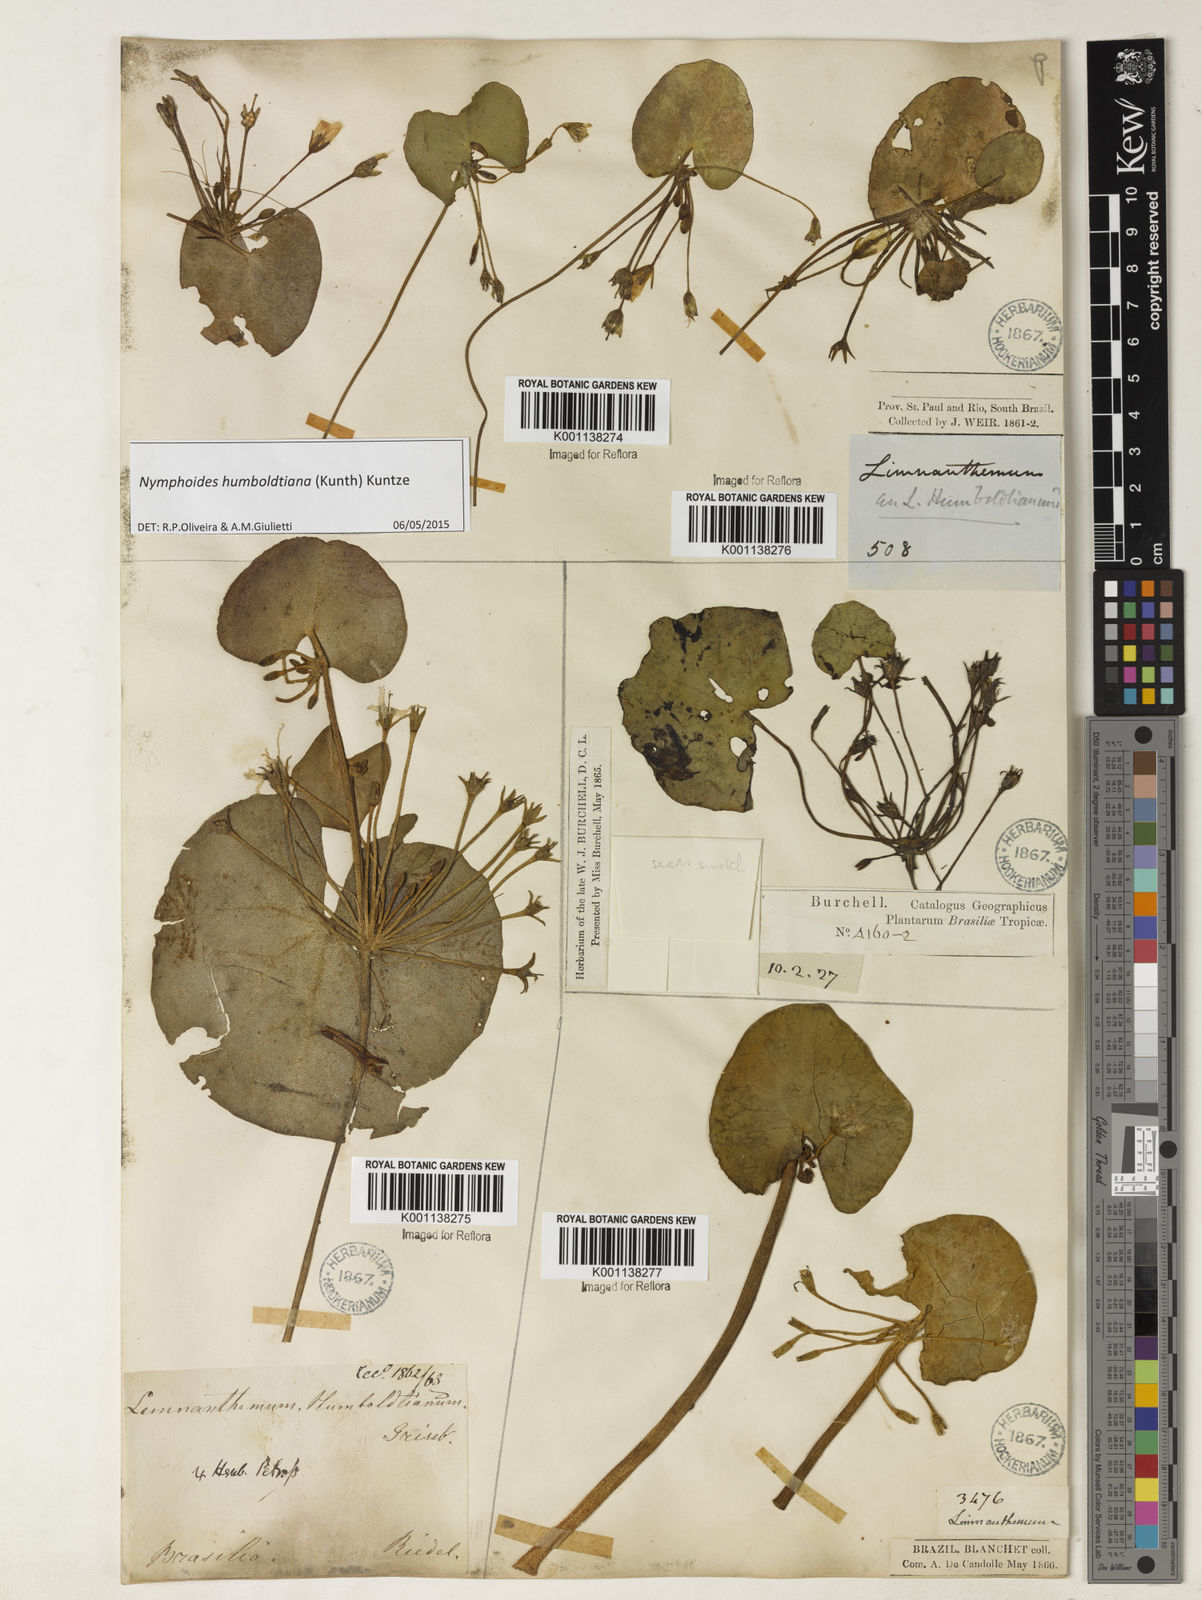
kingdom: Plantae
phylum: Tracheophyta
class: Magnoliopsida
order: Asterales
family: Menyanthaceae
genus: Nymphoides
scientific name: Nymphoides humboldtiana
